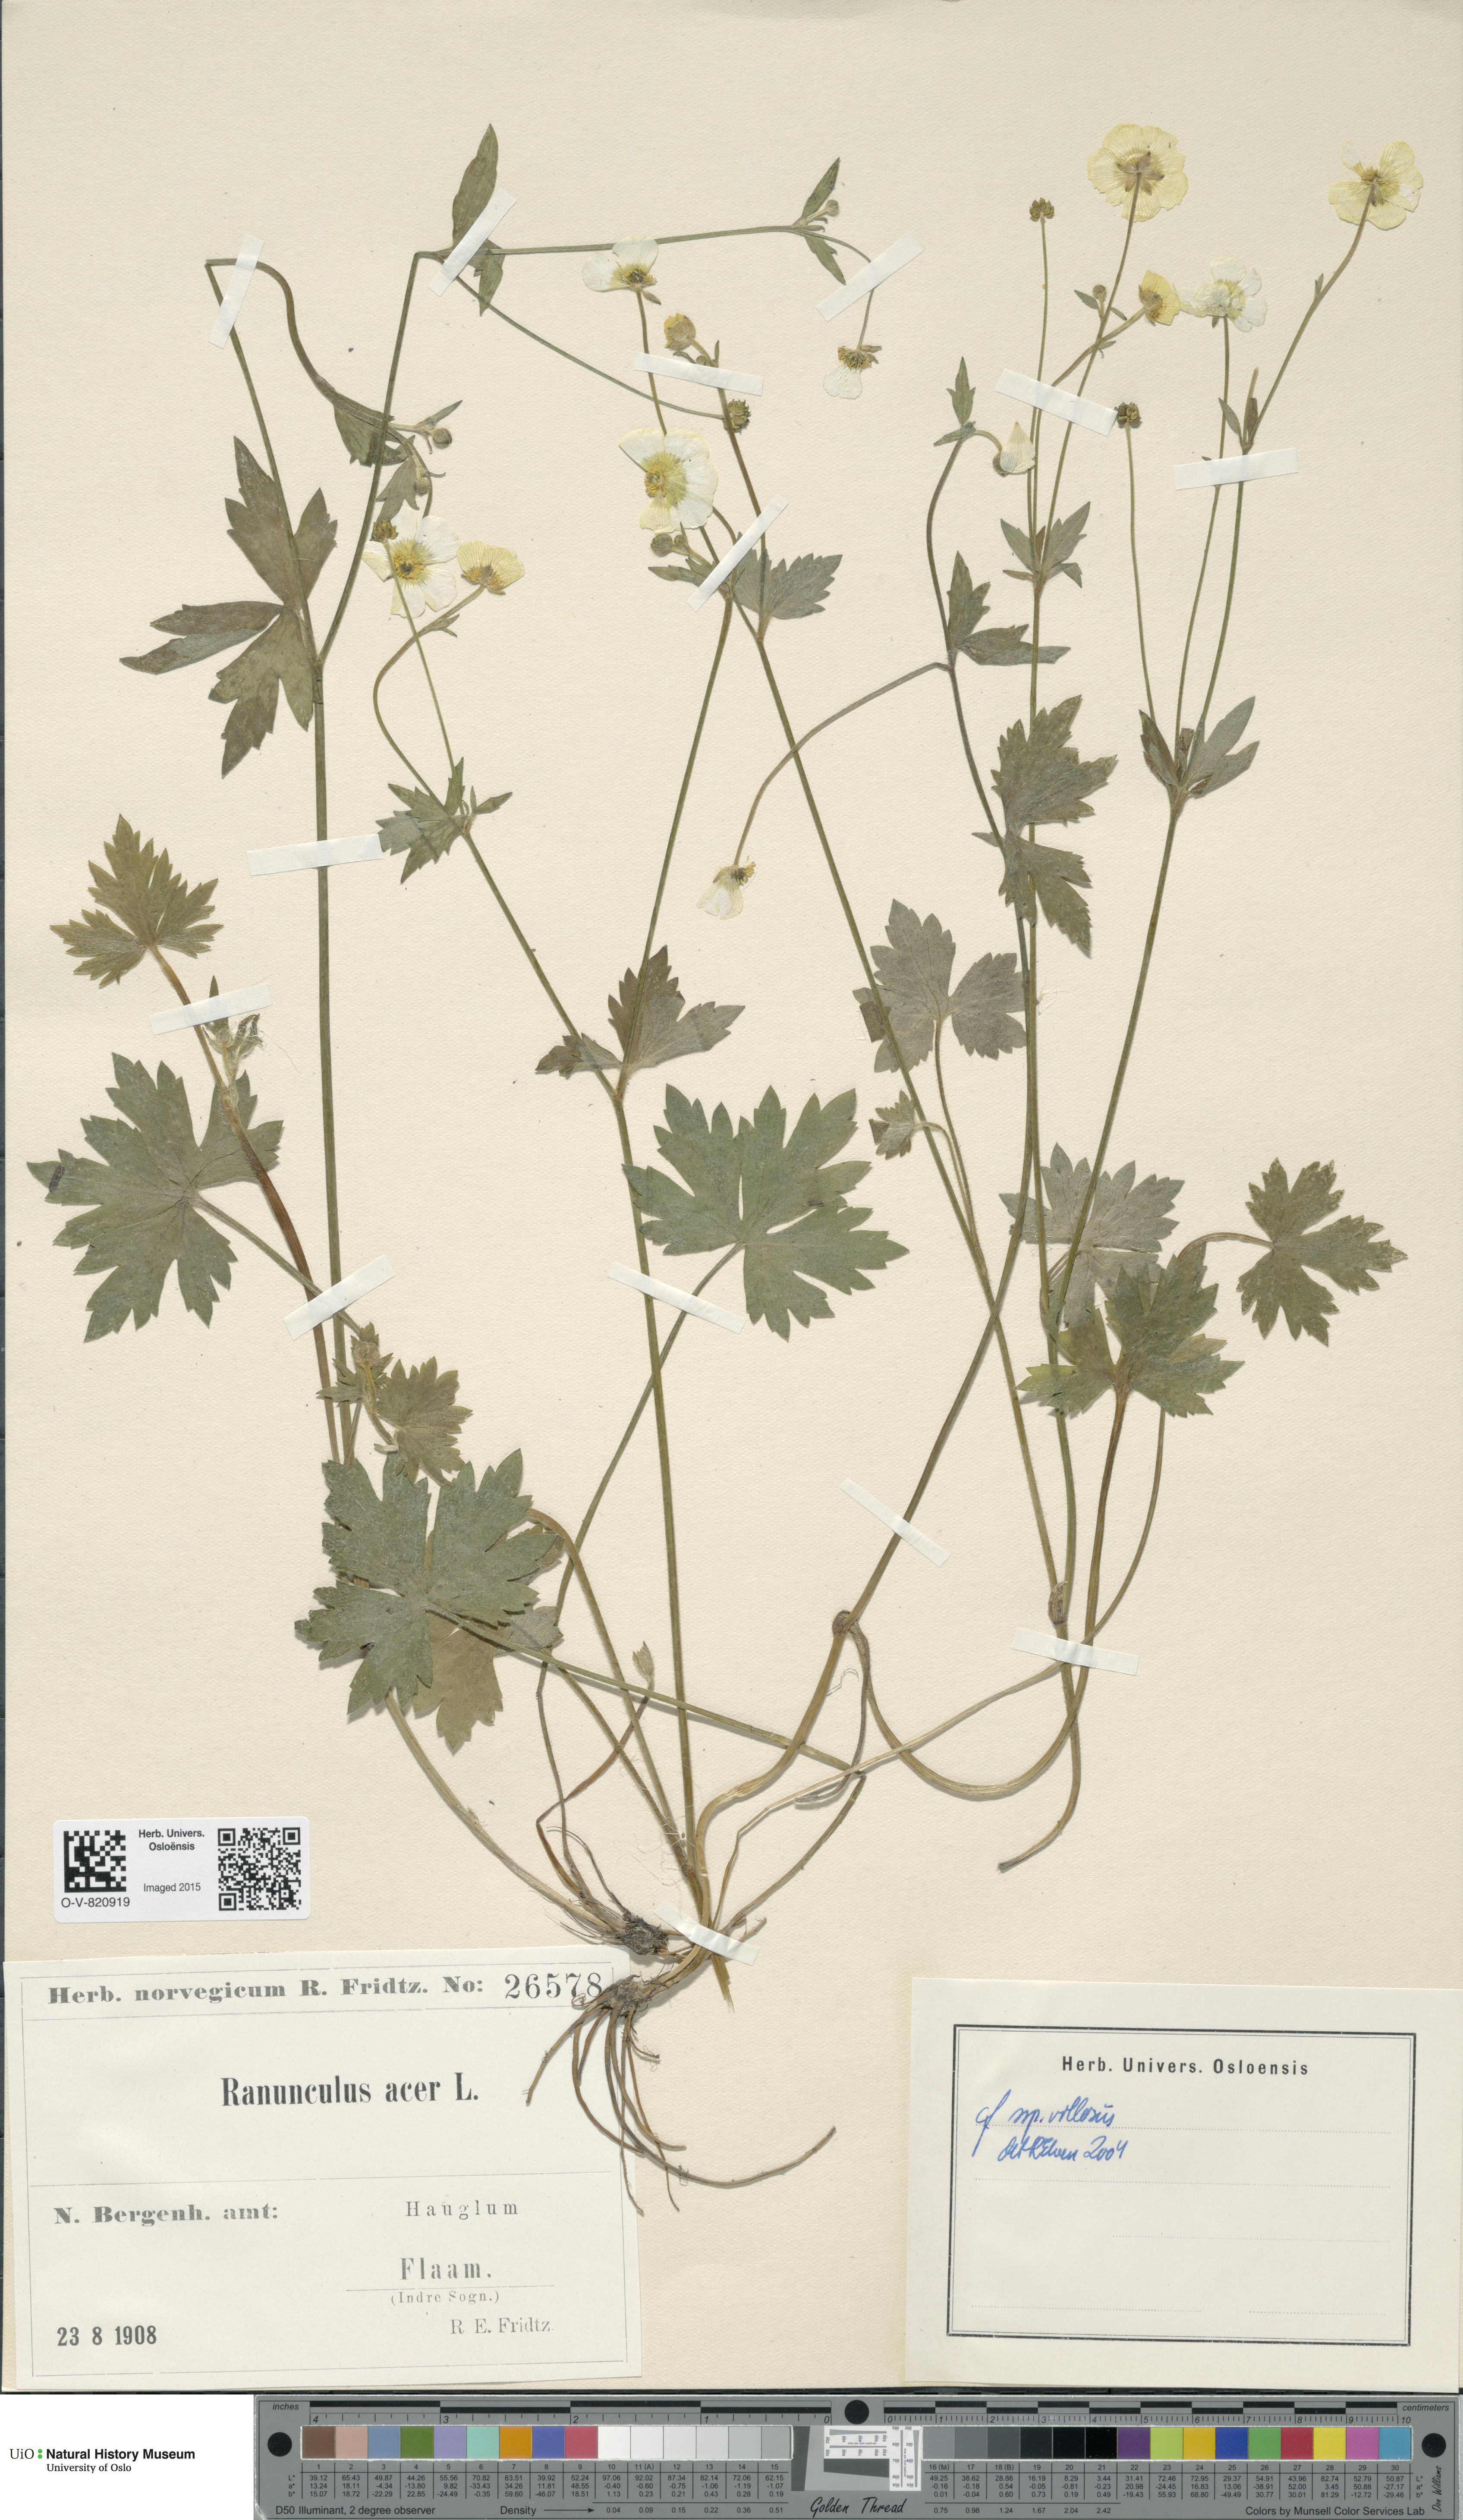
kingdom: Plantae
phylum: Tracheophyta
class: Magnoliopsida
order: Ranunculales
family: Ranunculaceae
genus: Ranunculus
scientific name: Ranunculus propinquus
